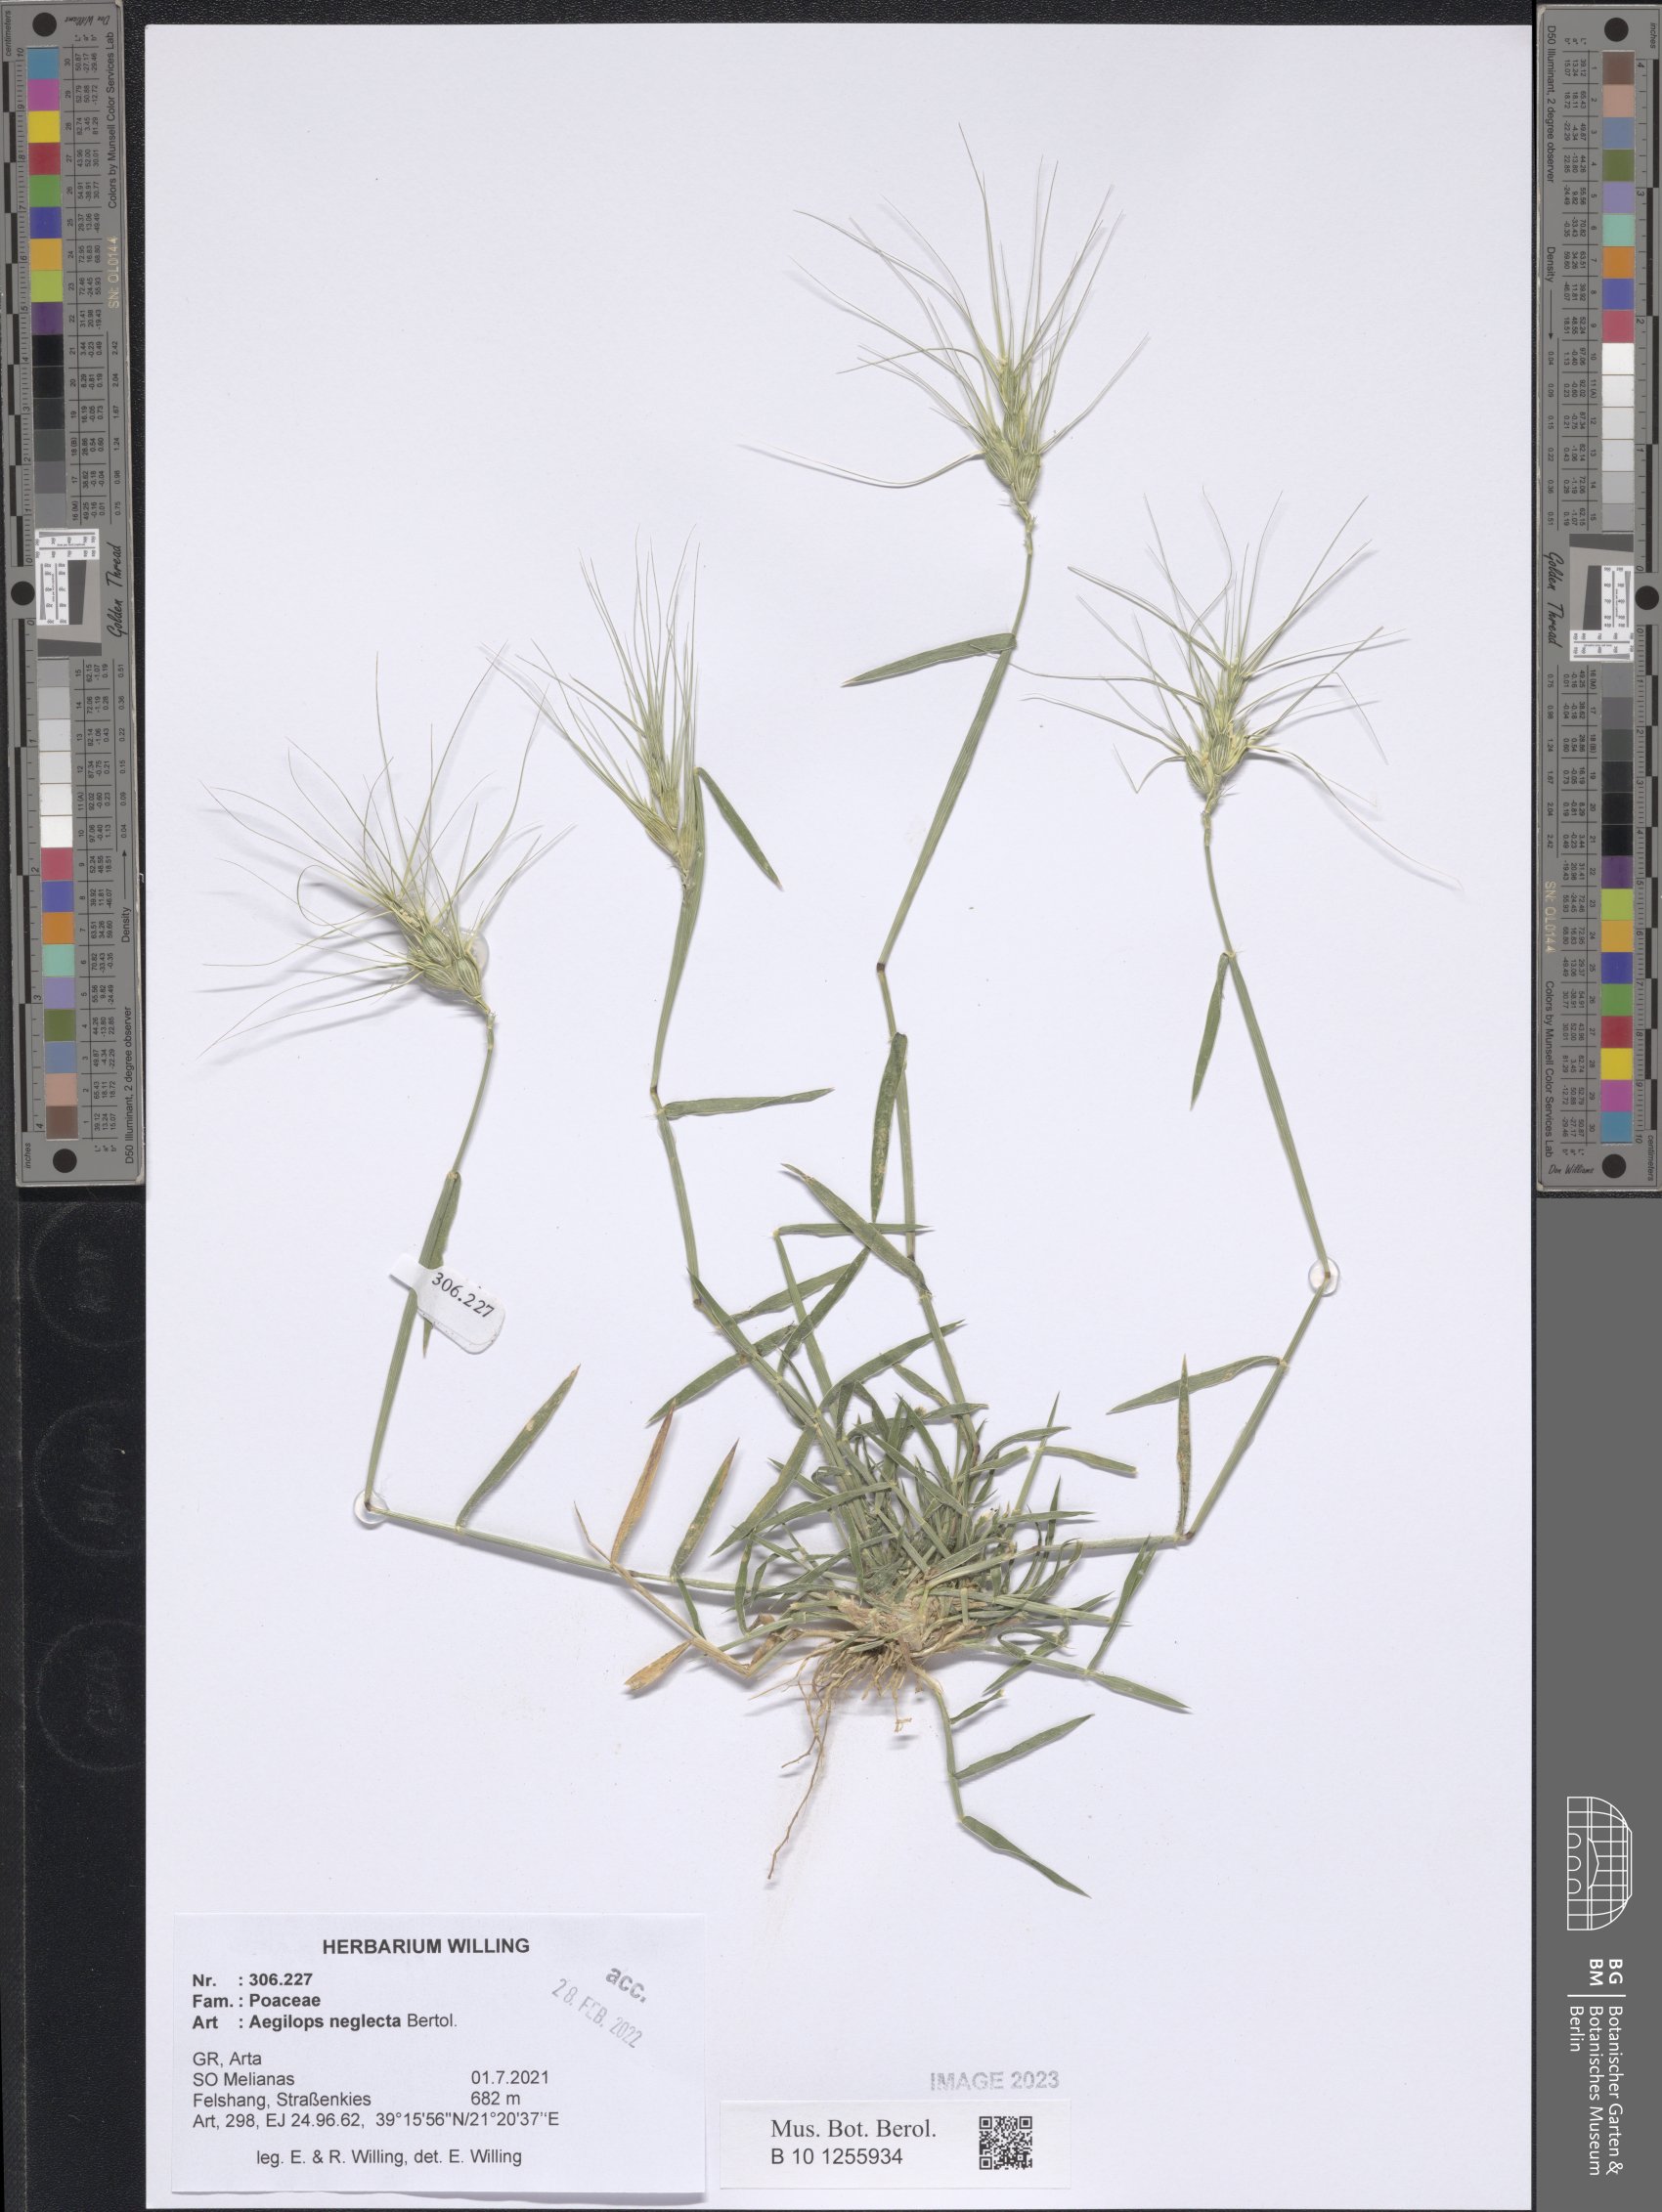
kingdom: Plantae
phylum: Tracheophyta
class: Liliopsida
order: Poales
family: Poaceae
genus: Aegilops
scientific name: Aegilops neglecta
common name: Three-awn goat grass
